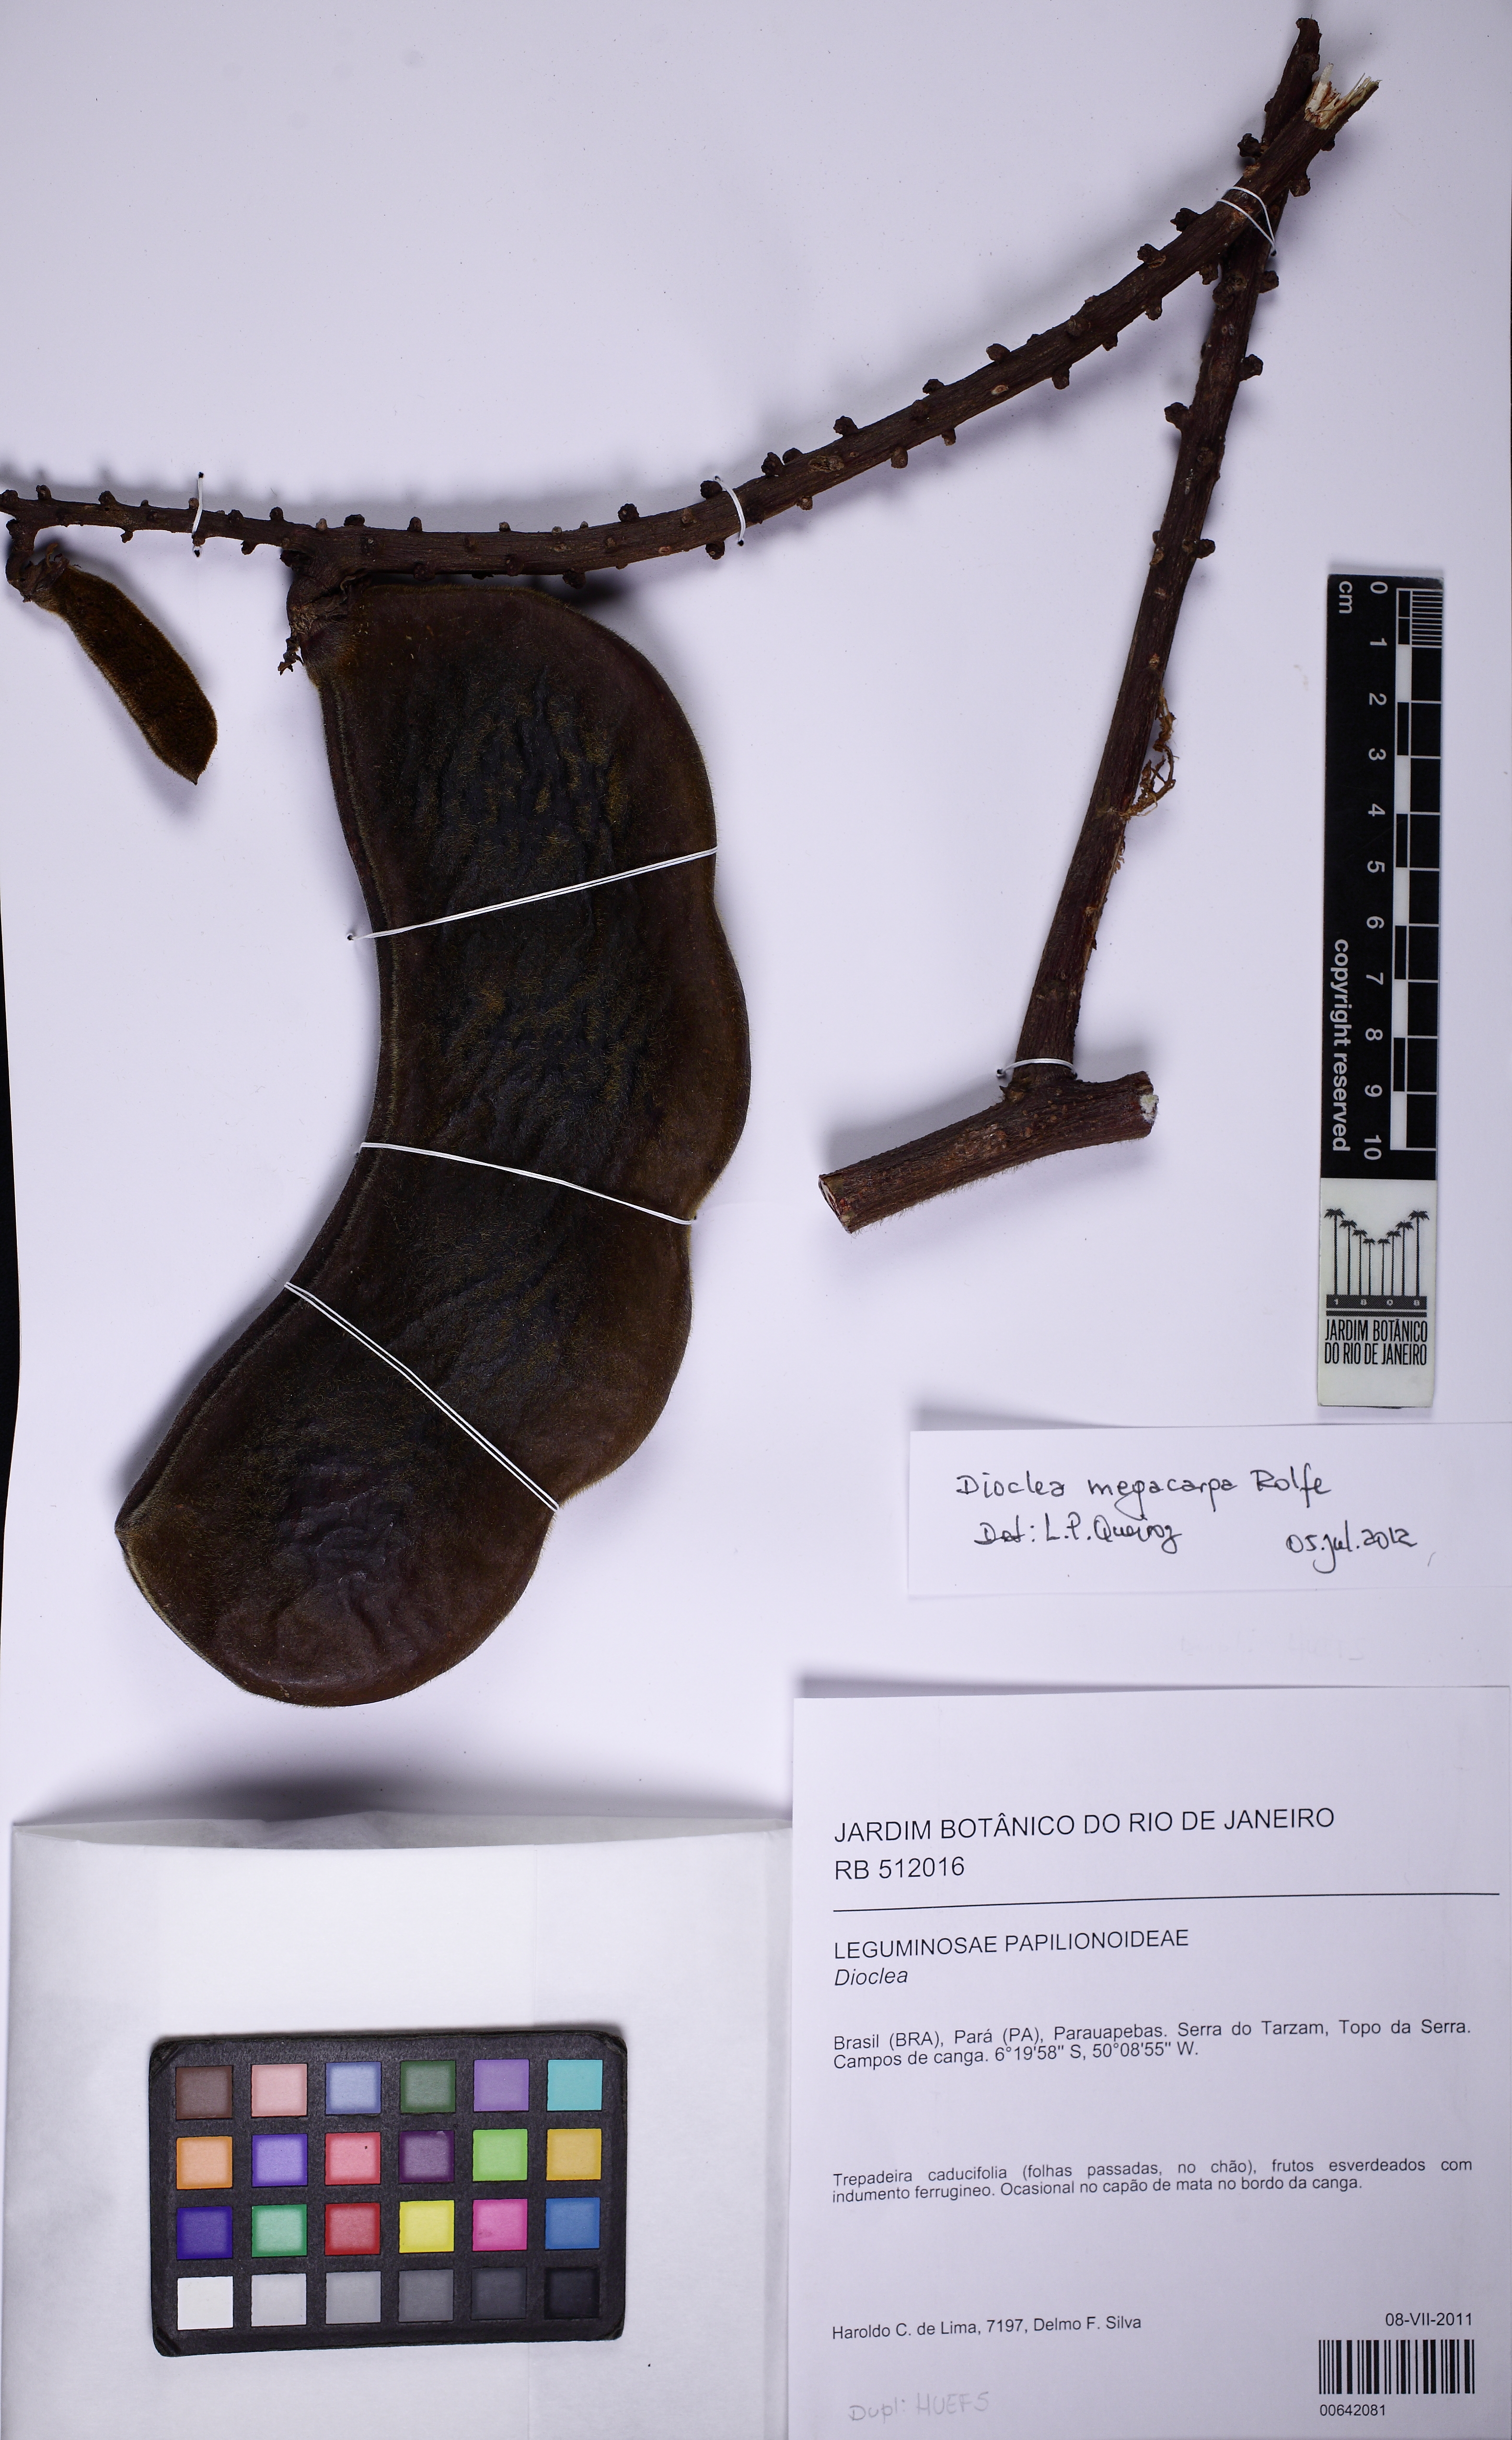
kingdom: Plantae
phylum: Tracheophyta
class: Magnoliopsida
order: Fabales
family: Fabaceae
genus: Macropsychanthus
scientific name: Macropsychanthus megacarpus
